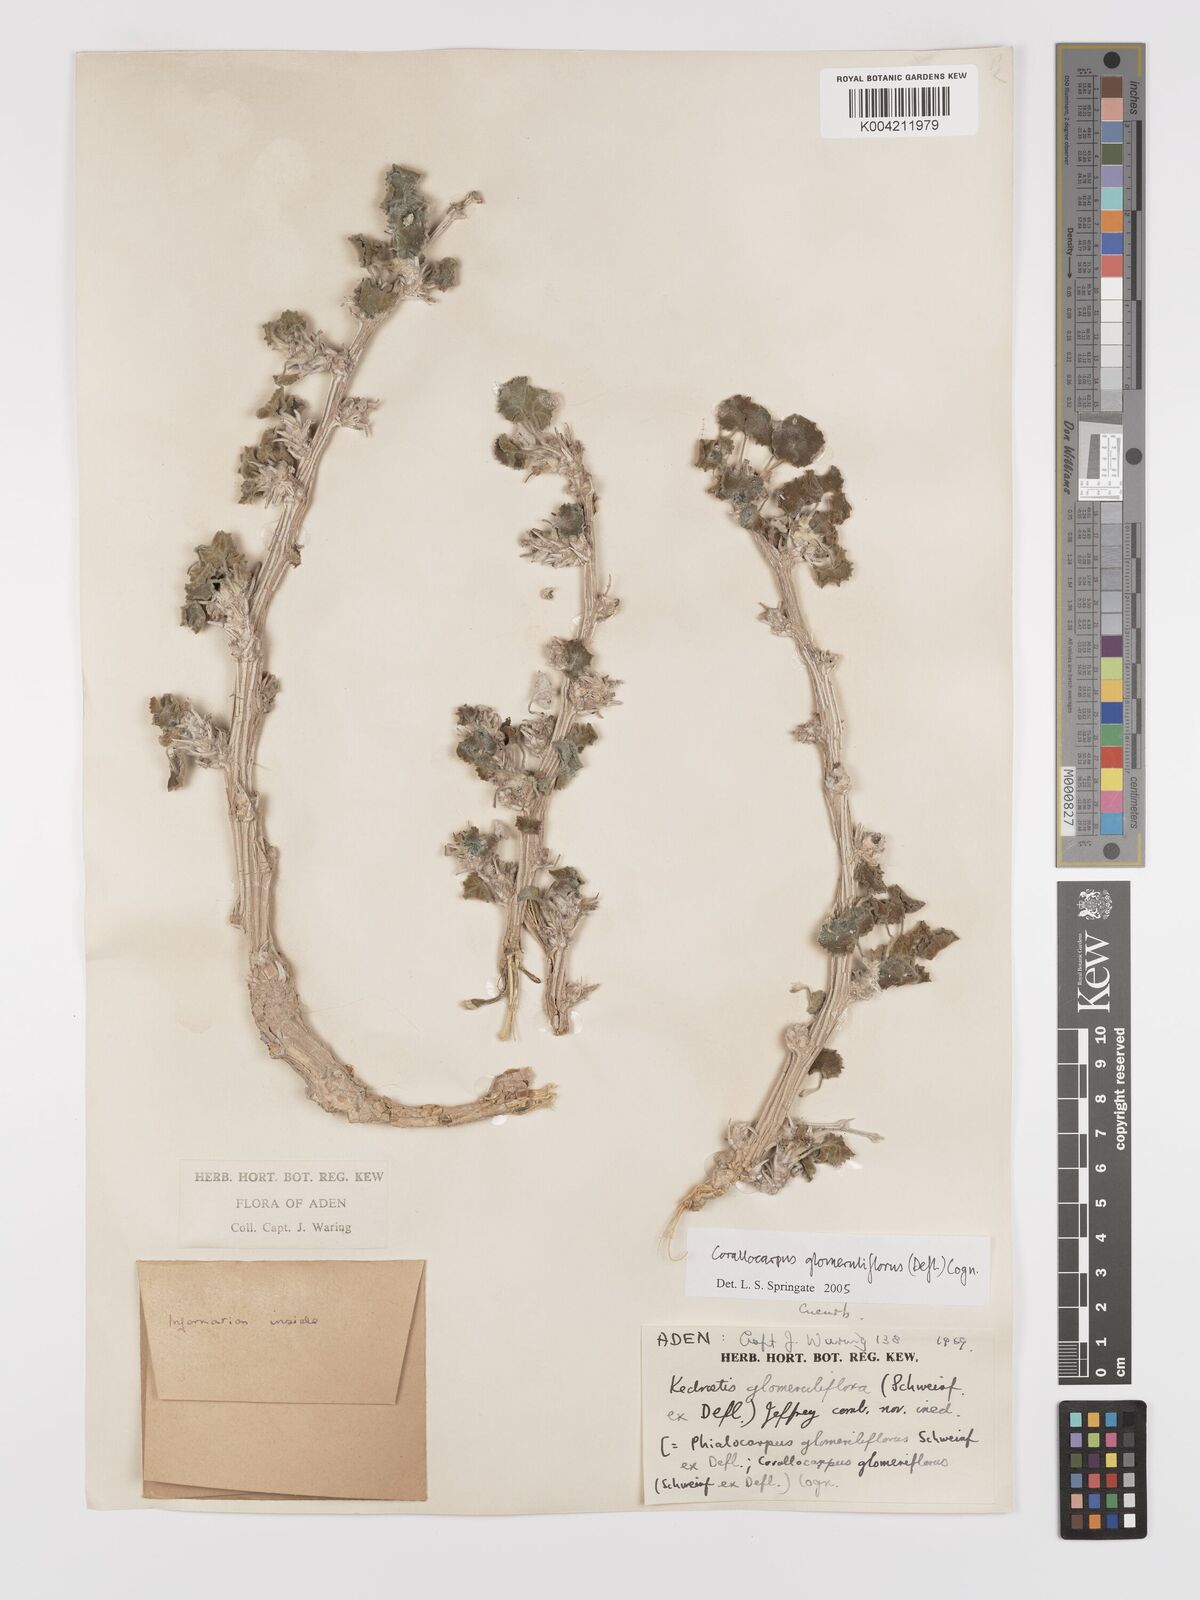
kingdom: Plantae
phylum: Tracheophyta
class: Magnoliopsida
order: Cucurbitales
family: Cucurbitaceae
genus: Corallocarpus
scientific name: Corallocarpus glomeruliflorus
